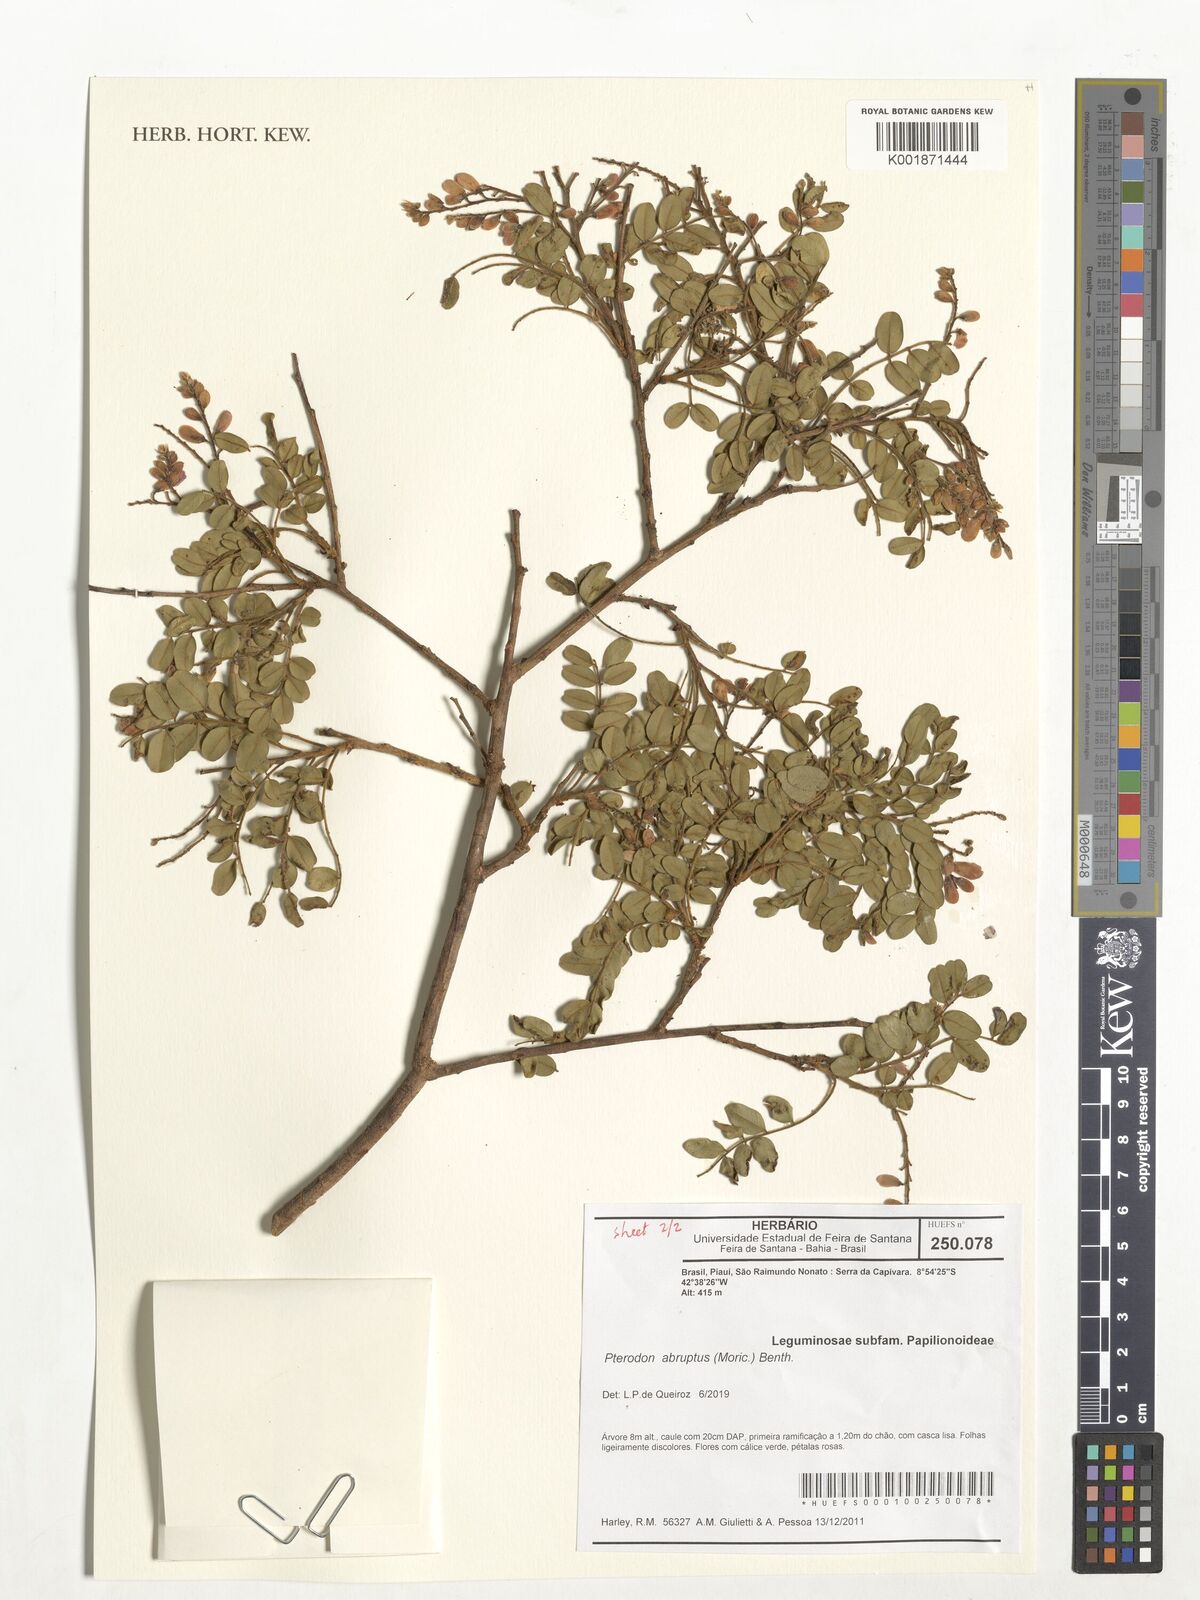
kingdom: Plantae
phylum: Tracheophyta
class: Magnoliopsida
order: Fabales
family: Fabaceae
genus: Pterodon
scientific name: Pterodon abruptus
